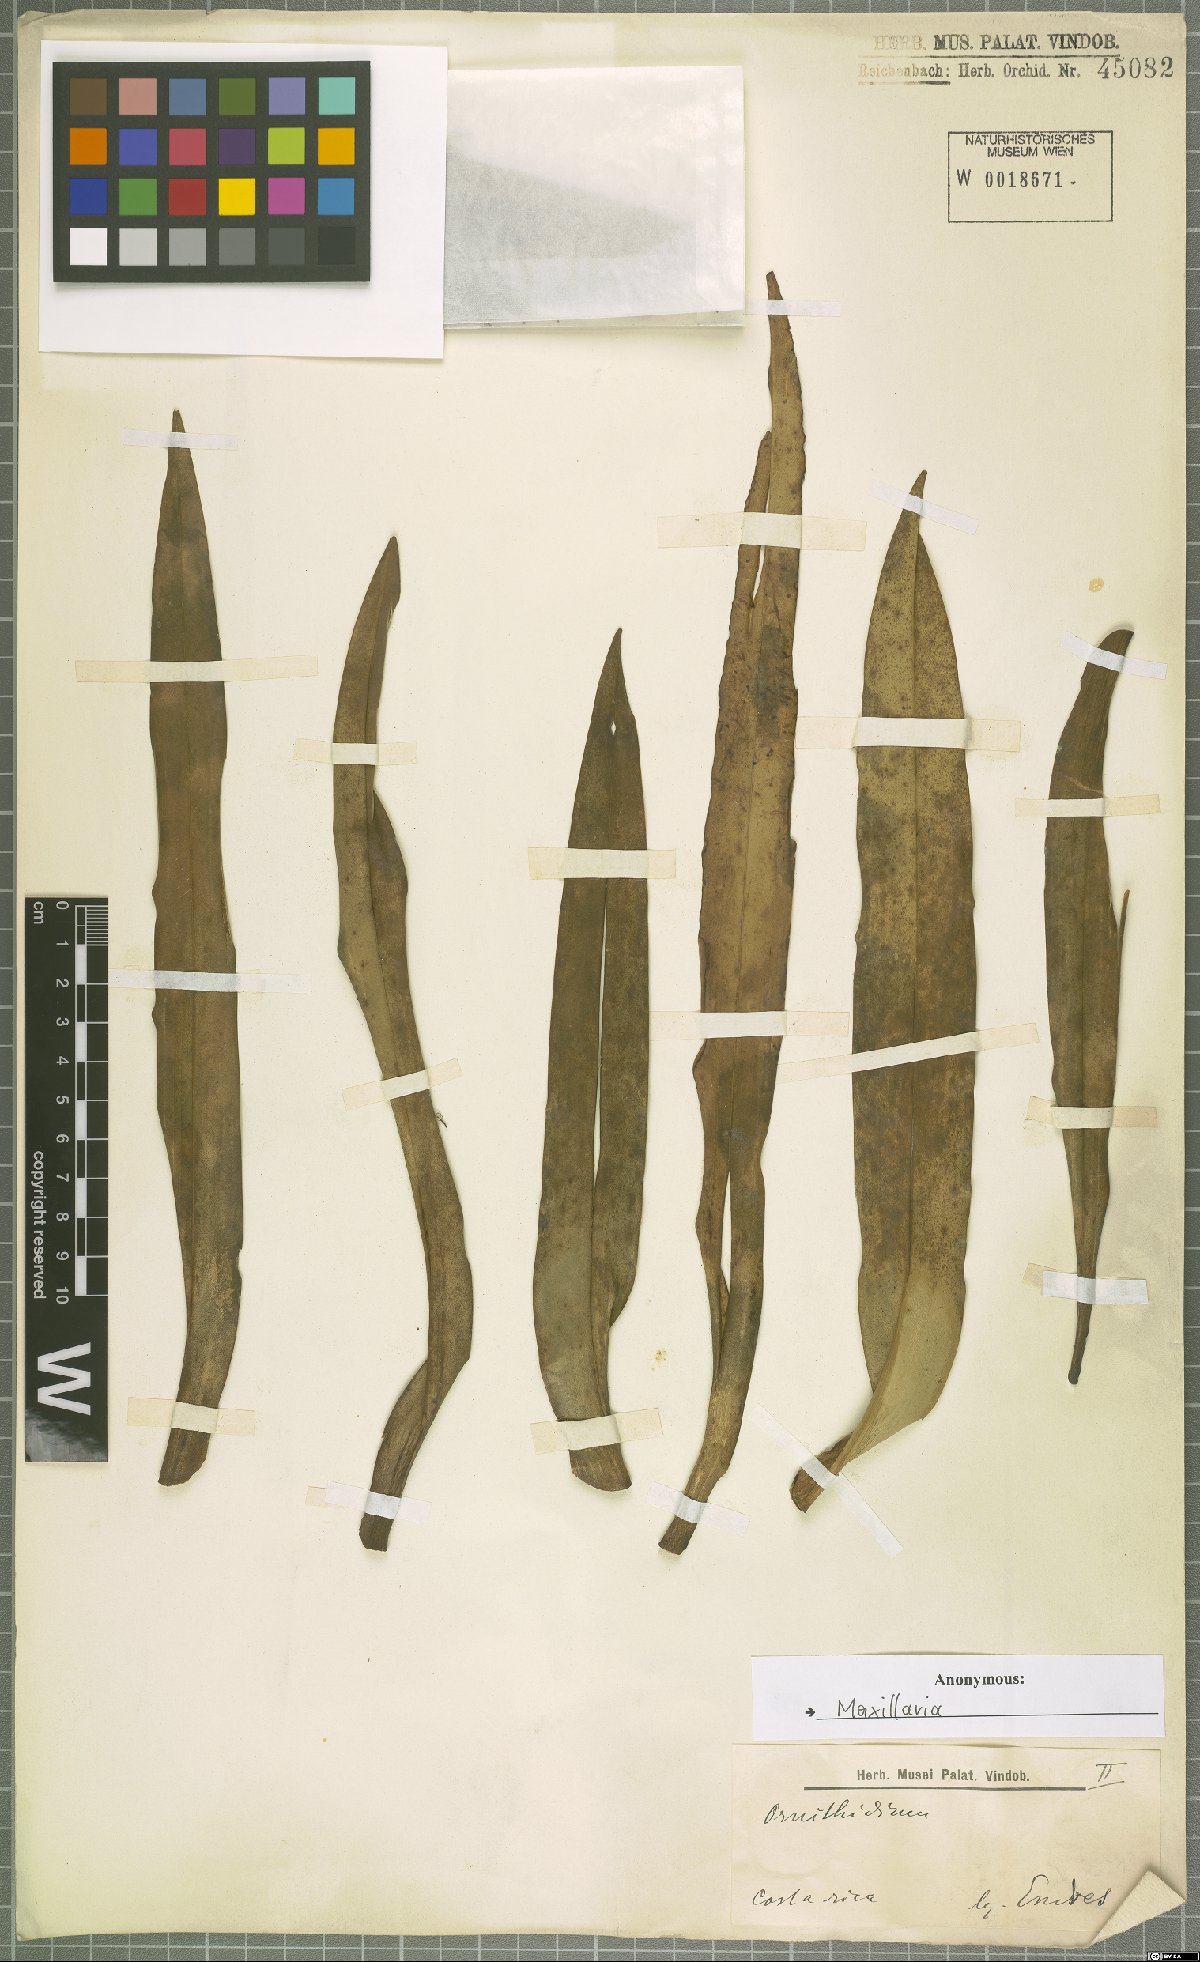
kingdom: Plantae
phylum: Tracheophyta
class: Liliopsida
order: Asparagales
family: Orchidaceae
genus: Maxillaria
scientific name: Maxillaria
